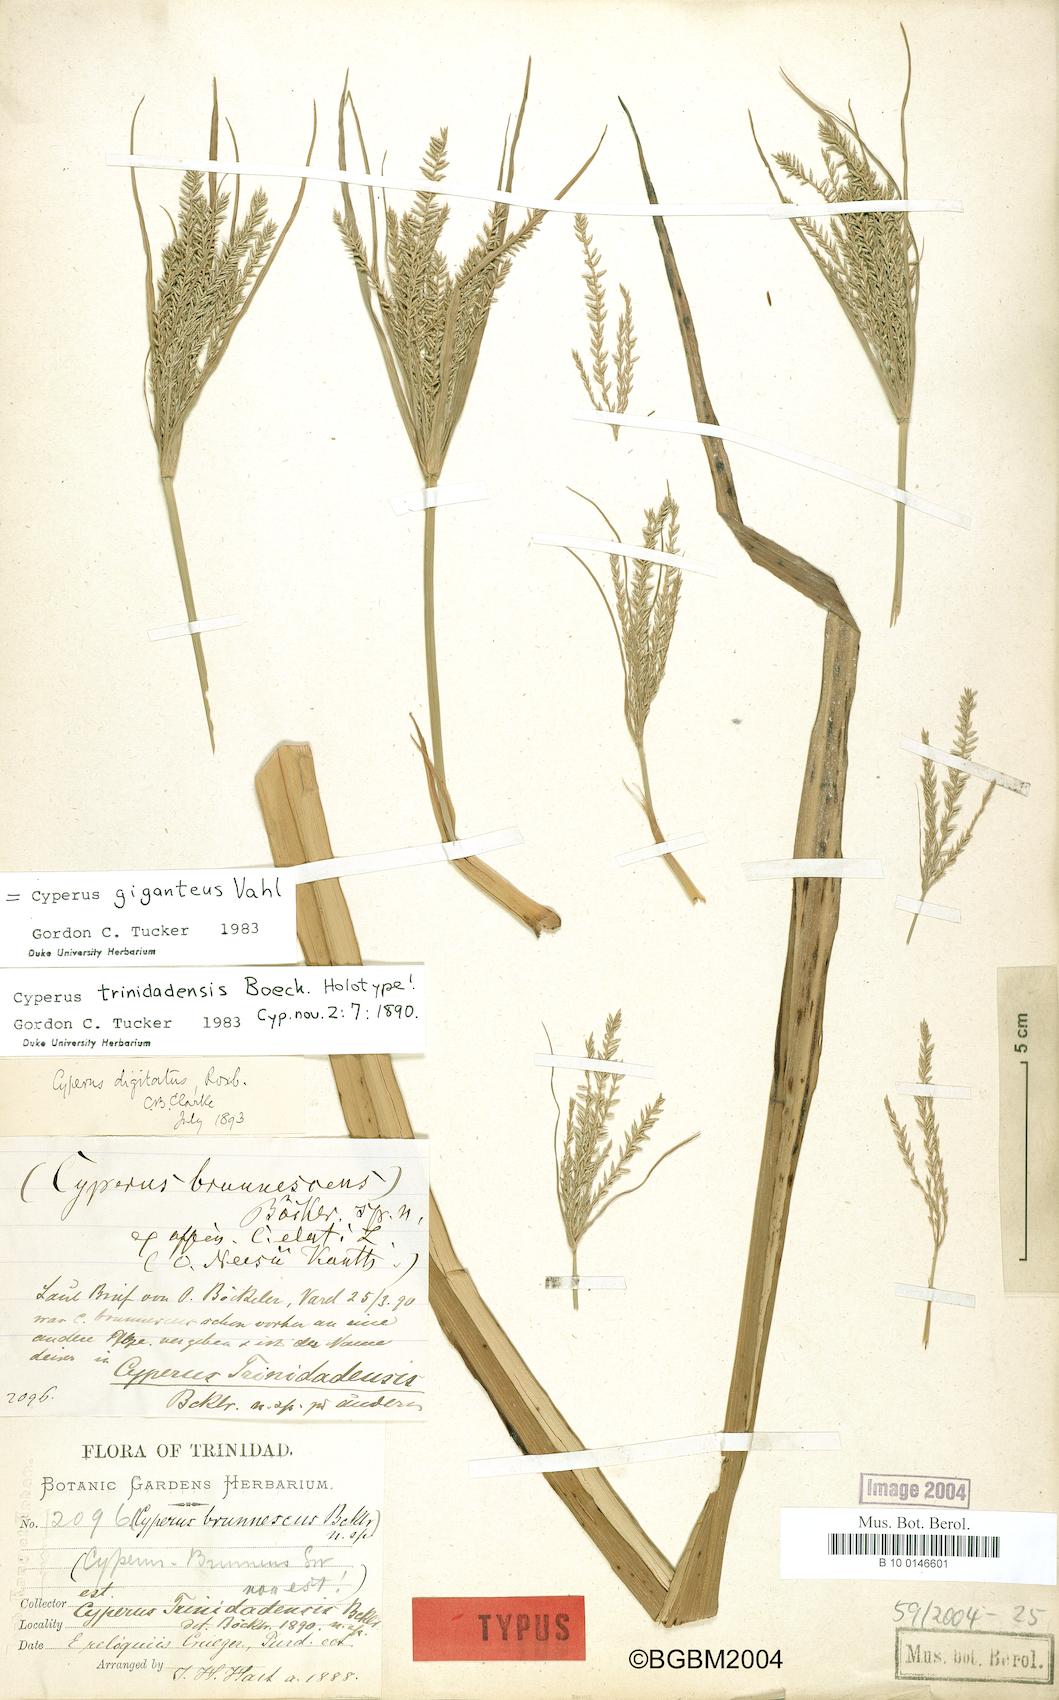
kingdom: Plantae
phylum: Tracheophyta
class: Liliopsida
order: Poales
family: Cyperaceae
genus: Cyperus
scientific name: Cyperus giganteus
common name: Giant flat sedge
